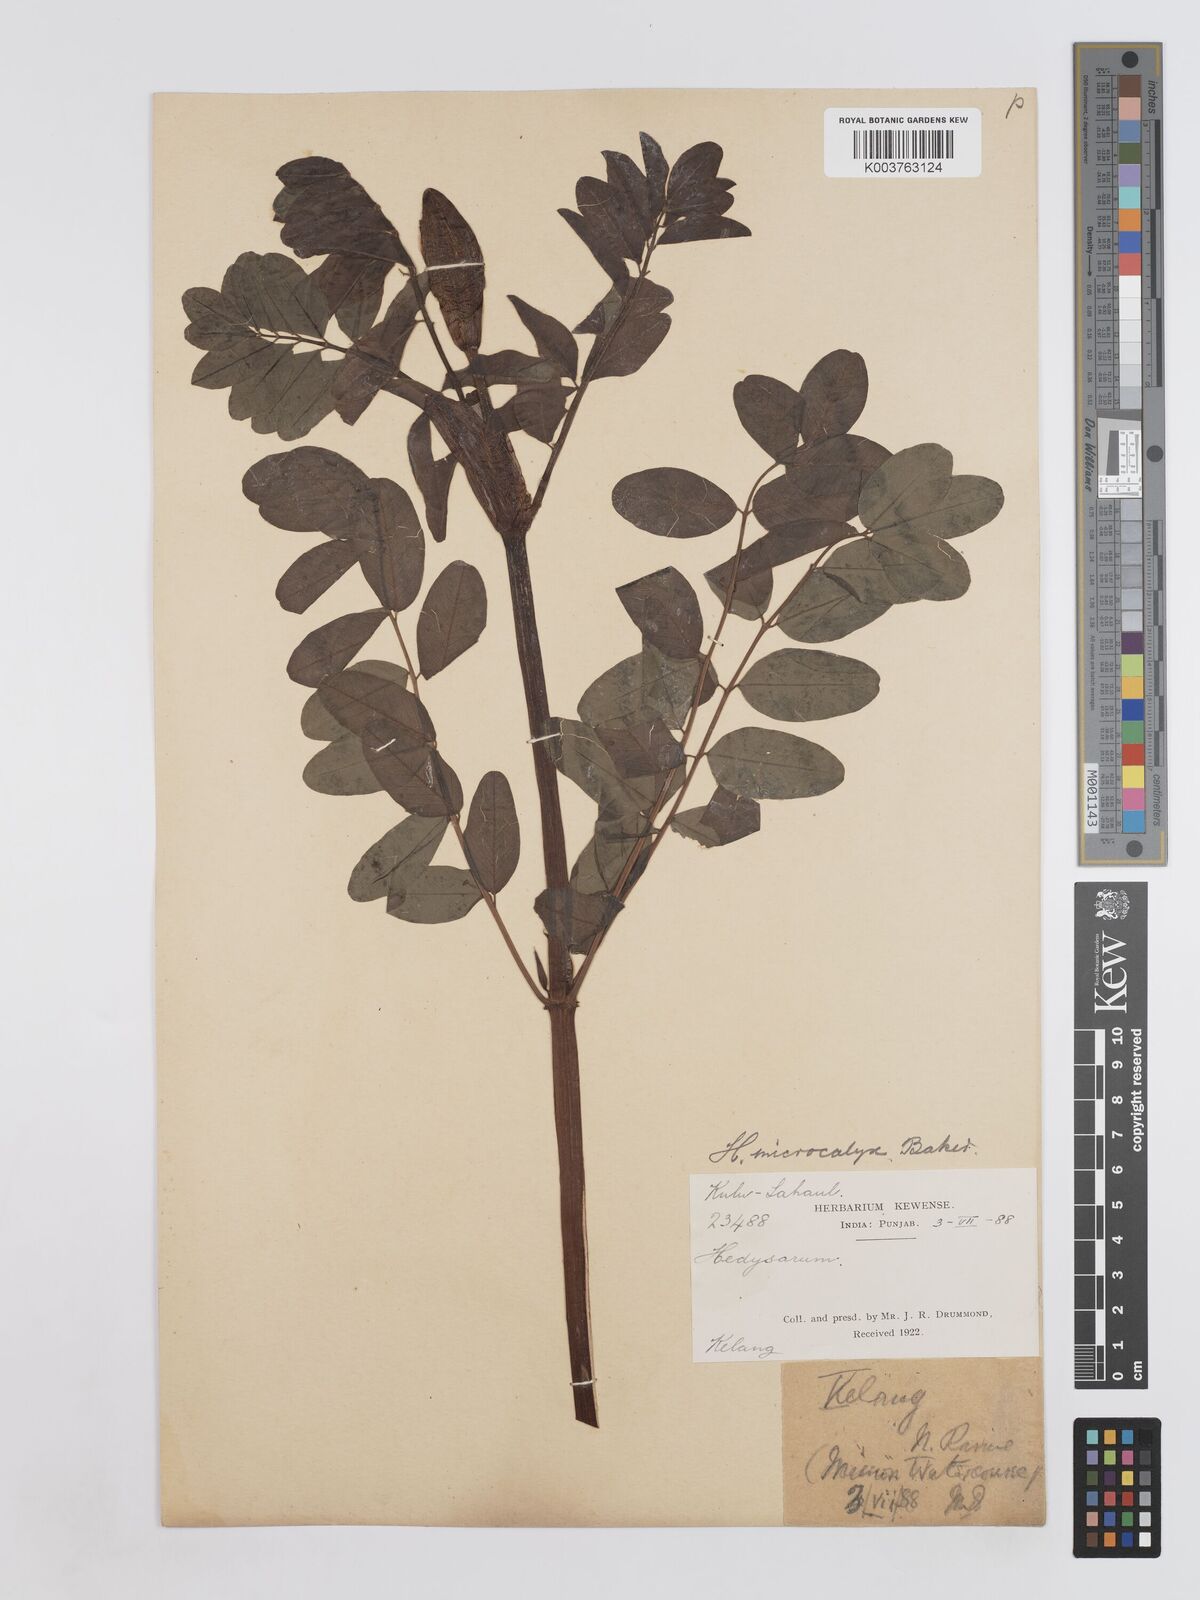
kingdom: Plantae
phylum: Tracheophyta
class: Magnoliopsida
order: Fabales
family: Fabaceae
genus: Hedysarum
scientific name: Hedysarum microcalyx
